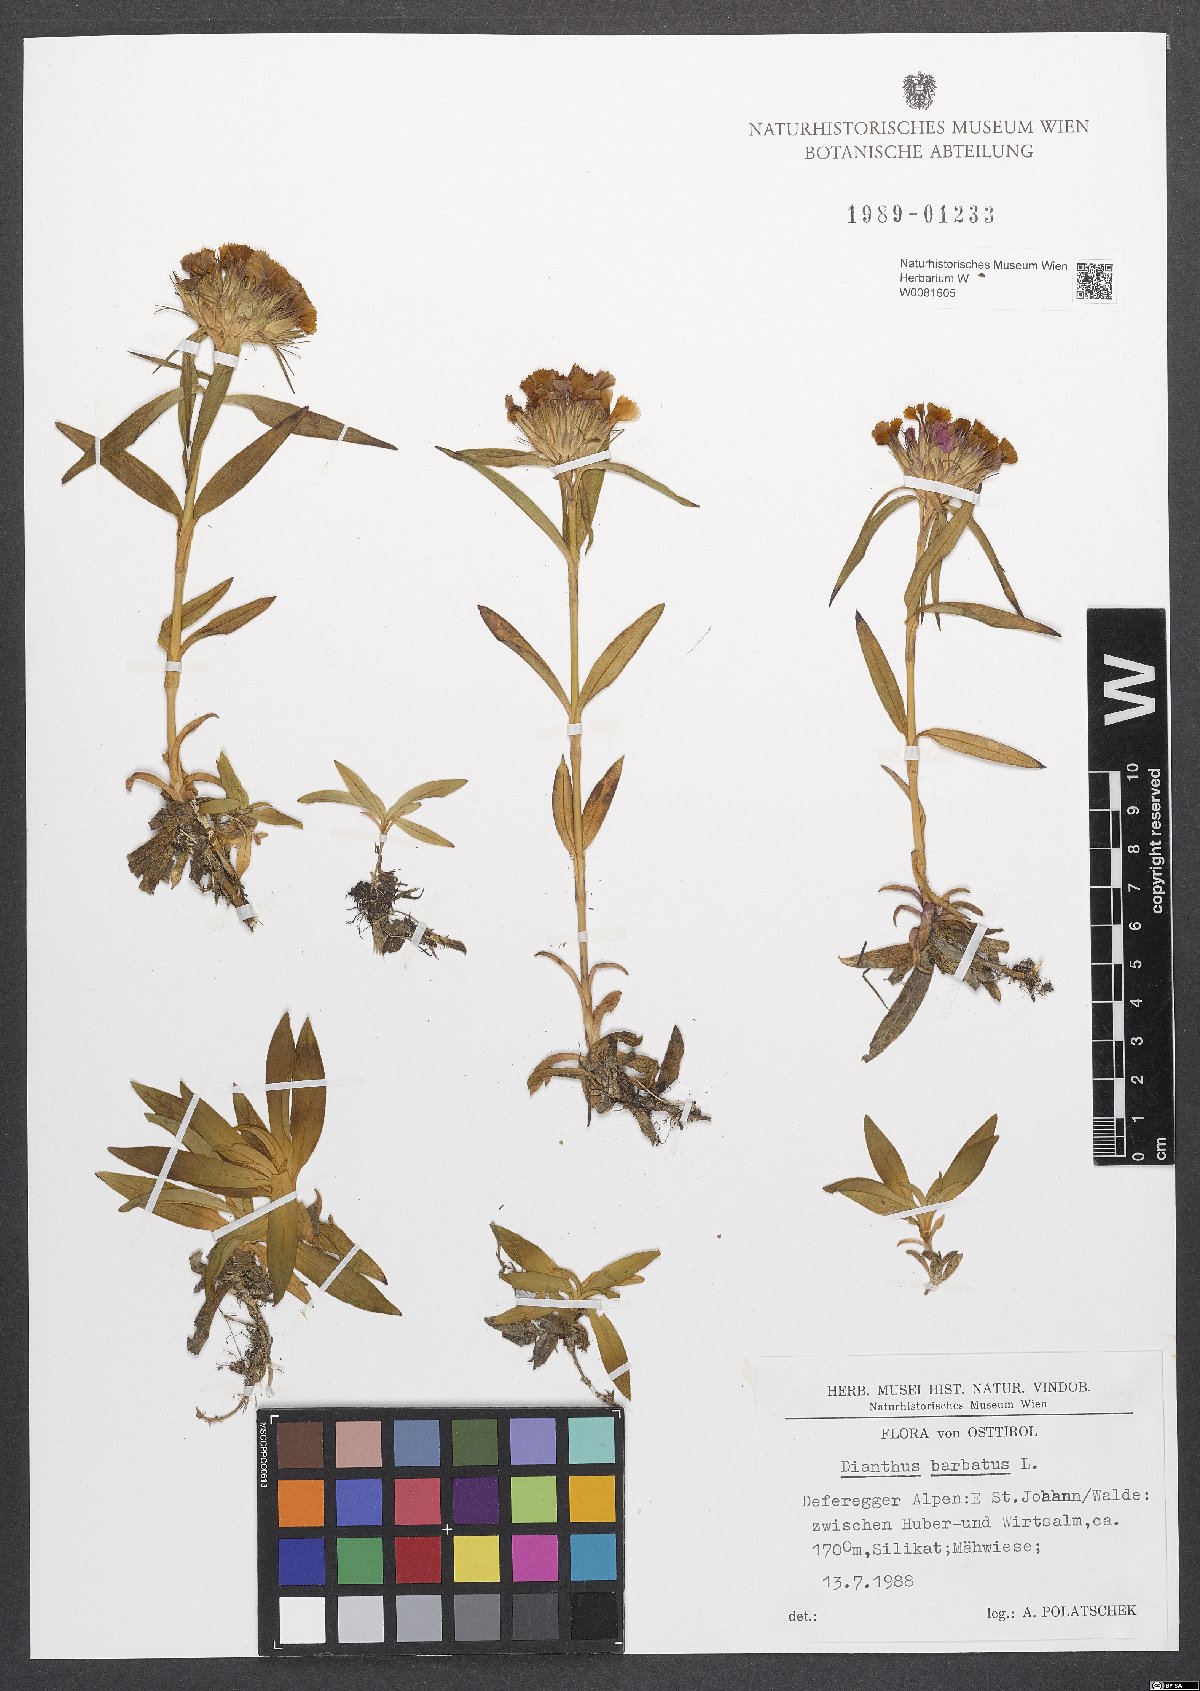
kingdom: Plantae
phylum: Tracheophyta
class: Magnoliopsida
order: Caryophyllales
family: Caryophyllaceae
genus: Dianthus
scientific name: Dianthus barbatus
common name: Sweet-william
